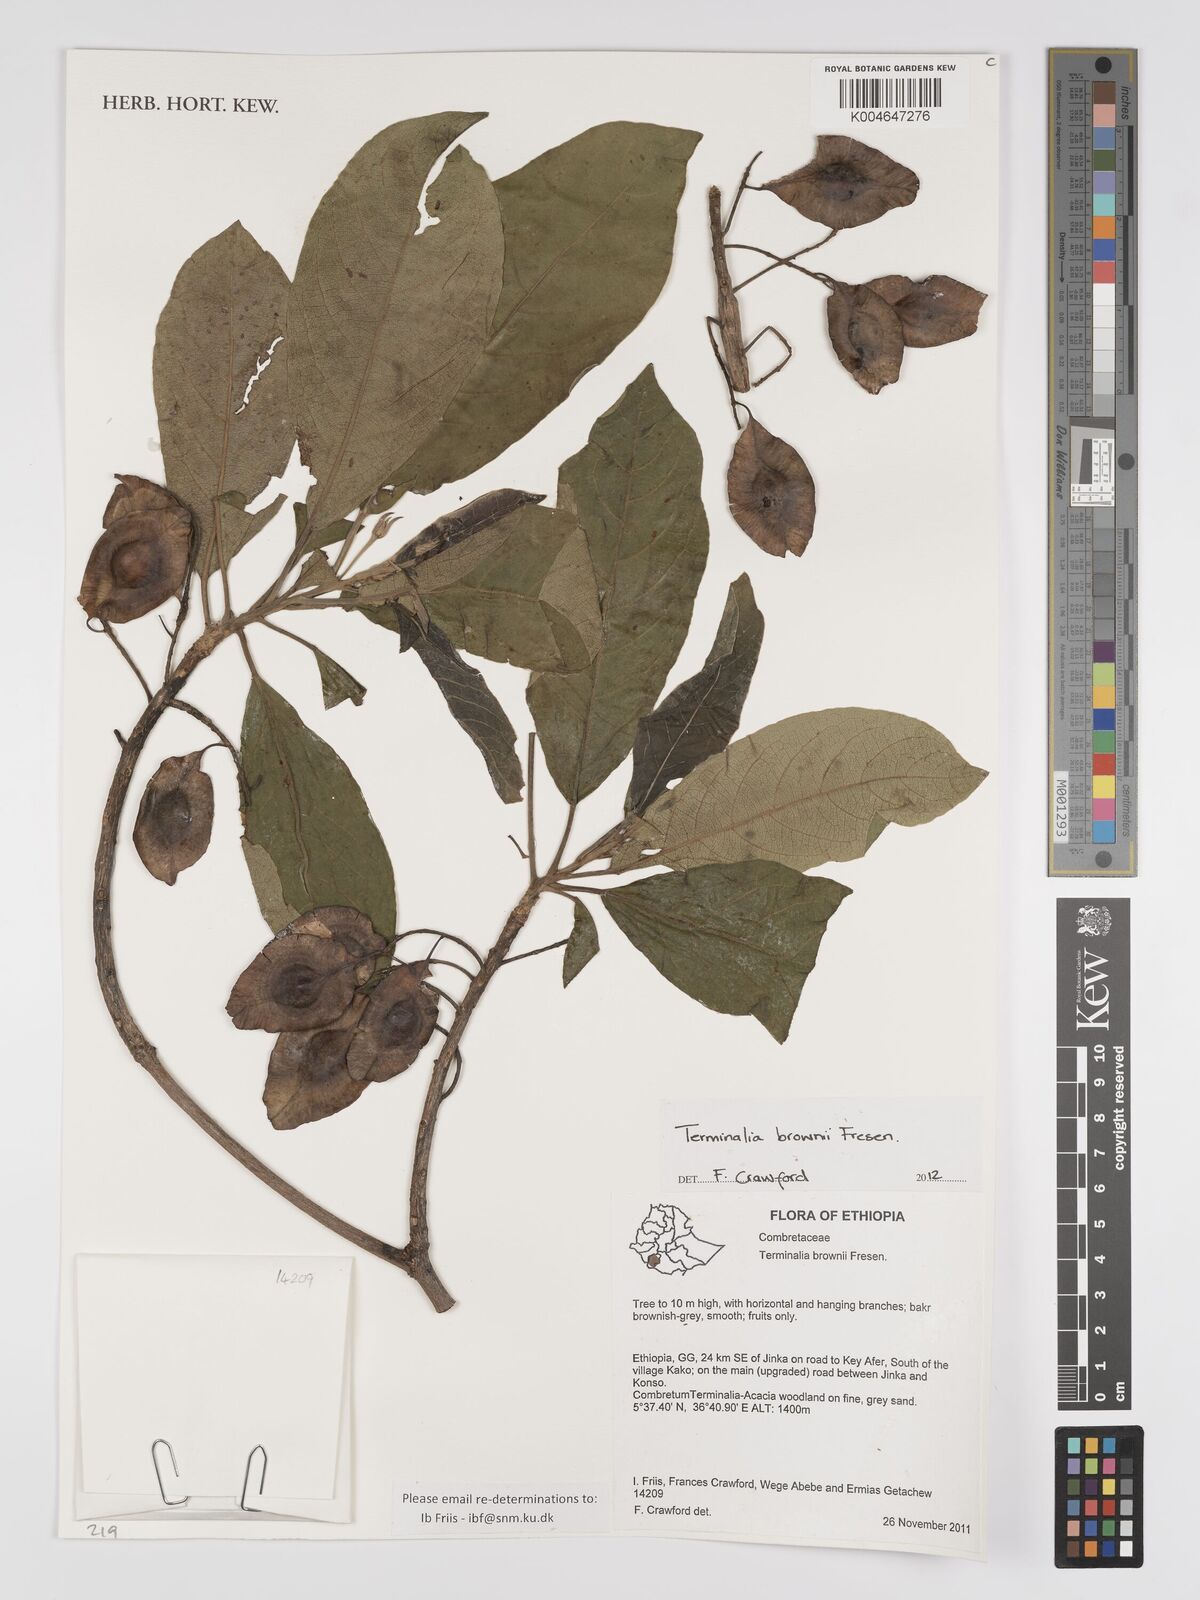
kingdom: Plantae
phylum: Tracheophyta
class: Magnoliopsida
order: Myrtales
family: Combretaceae
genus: Terminalia
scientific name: Terminalia brownii
